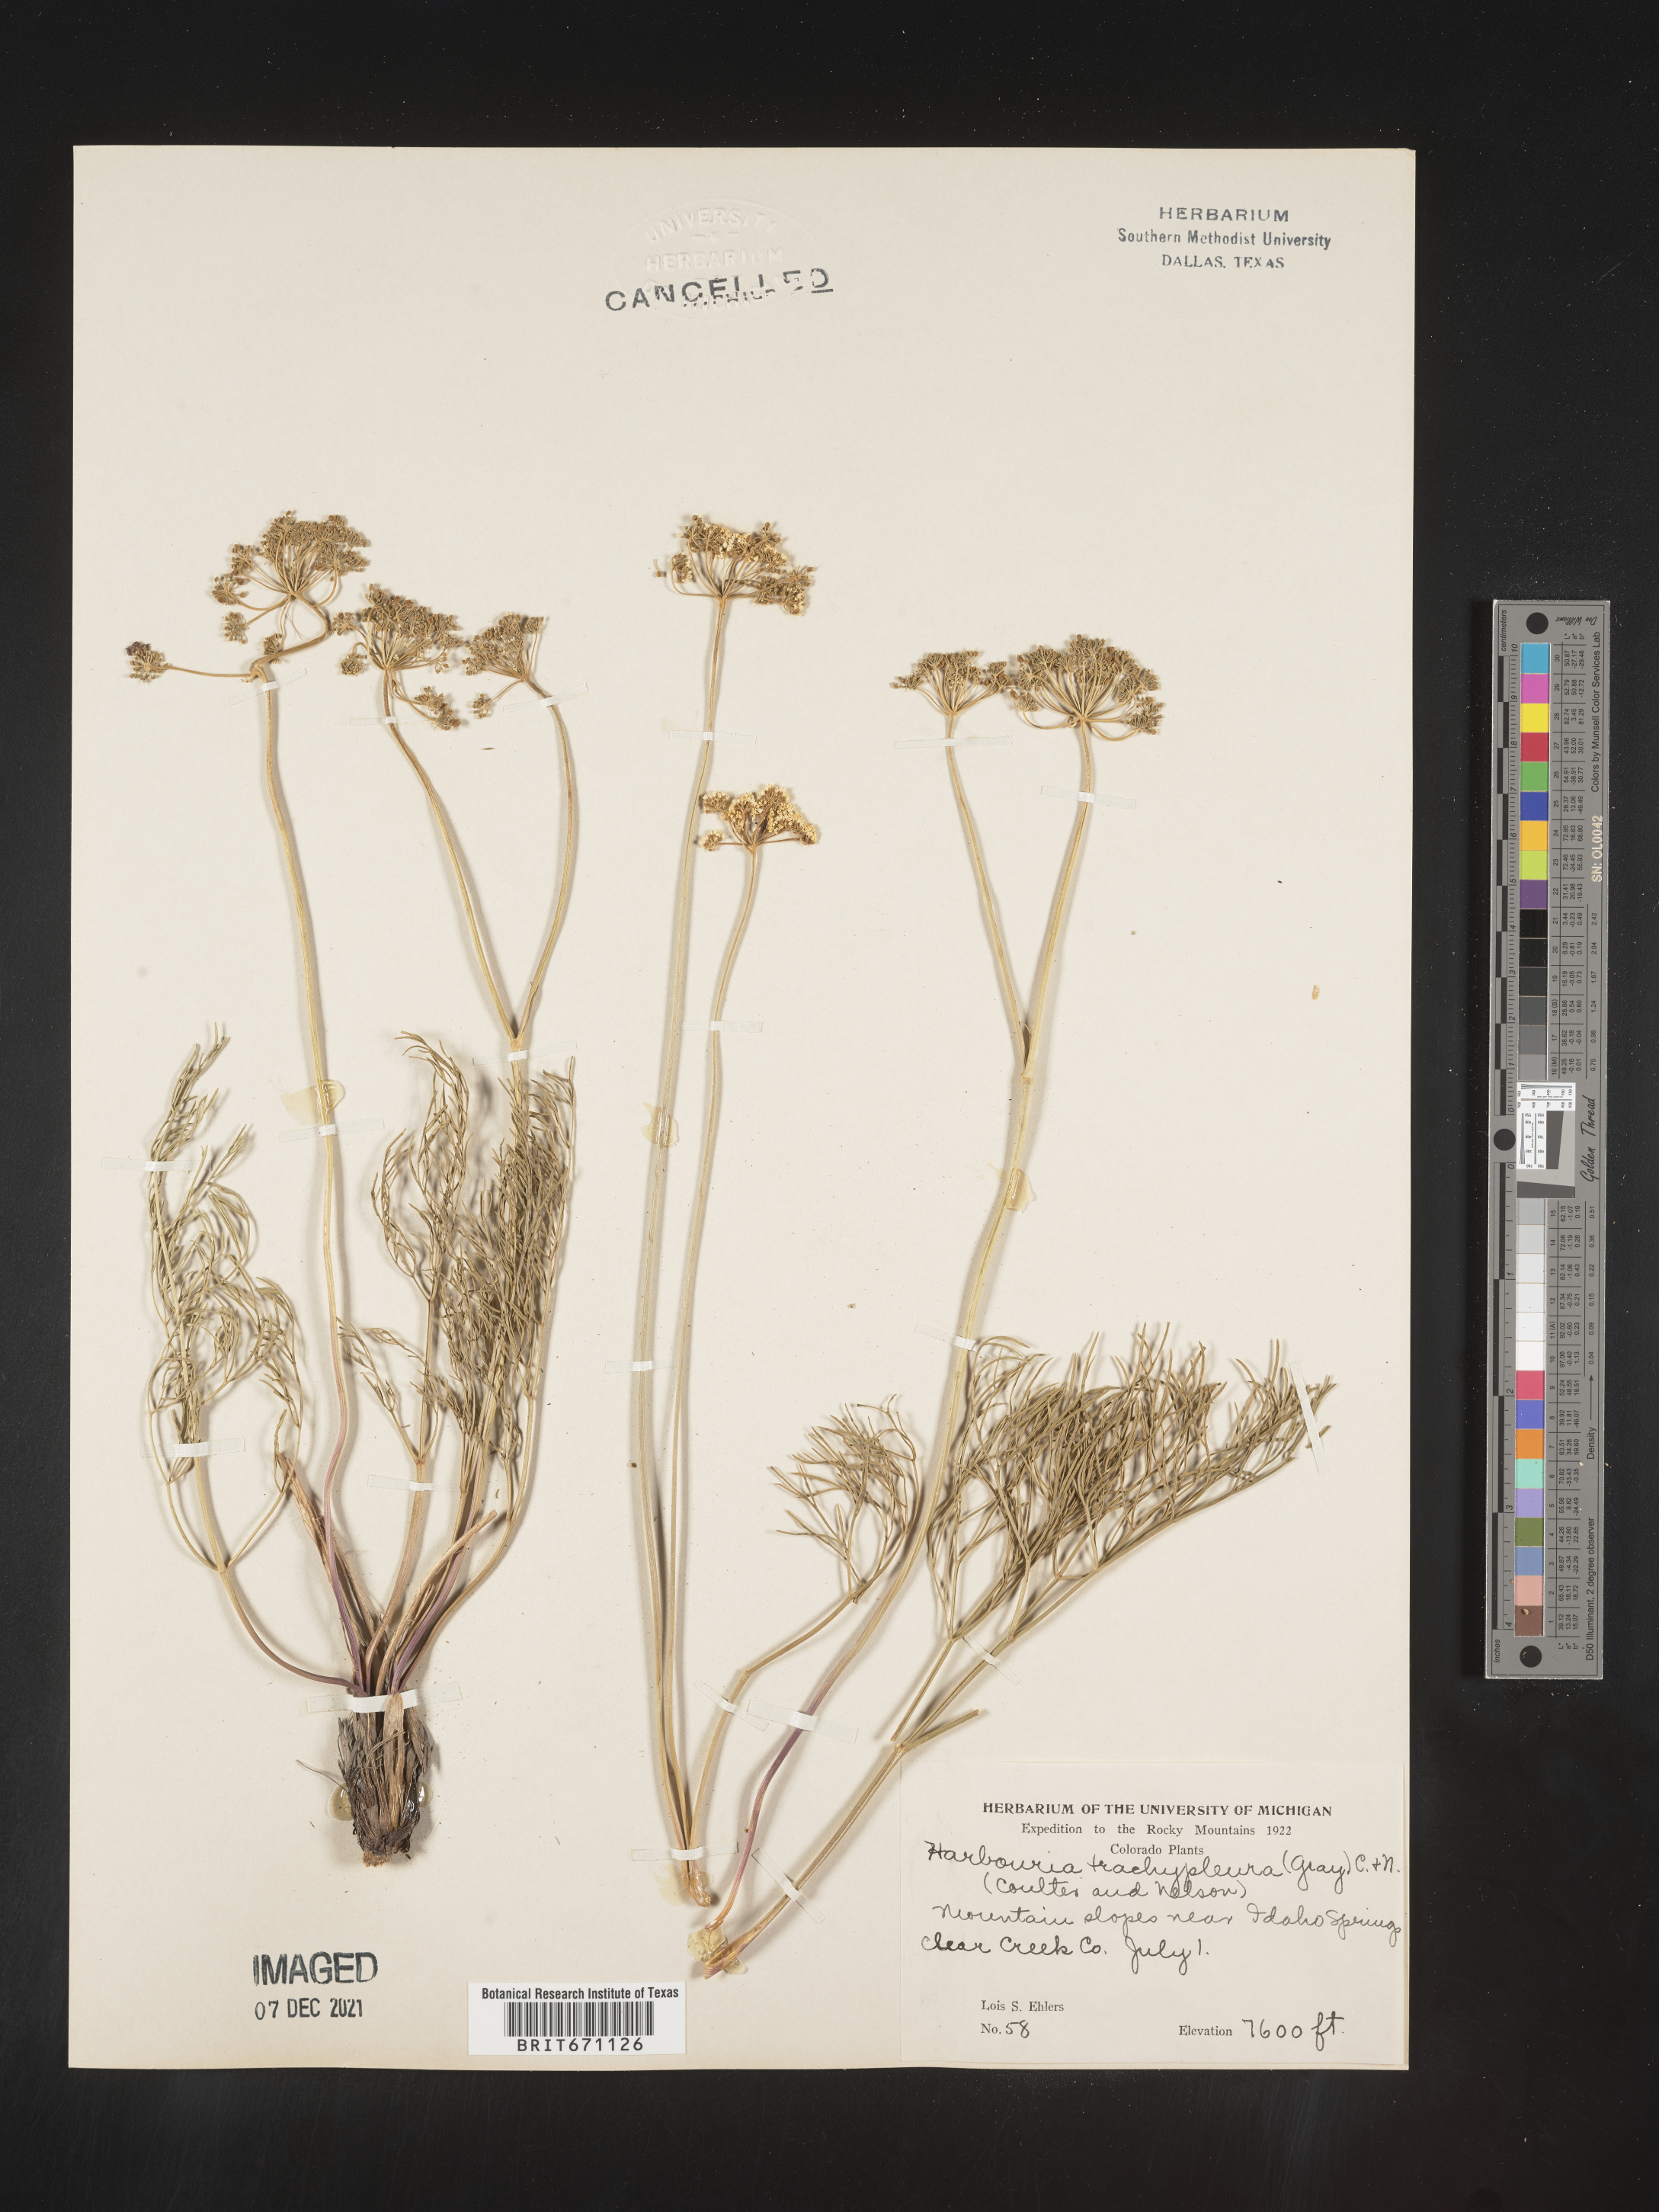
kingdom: Plantae
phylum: Tracheophyta
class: Magnoliopsida
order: Apiales
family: Apiaceae
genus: Harbouria
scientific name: Harbouria trachypleura
